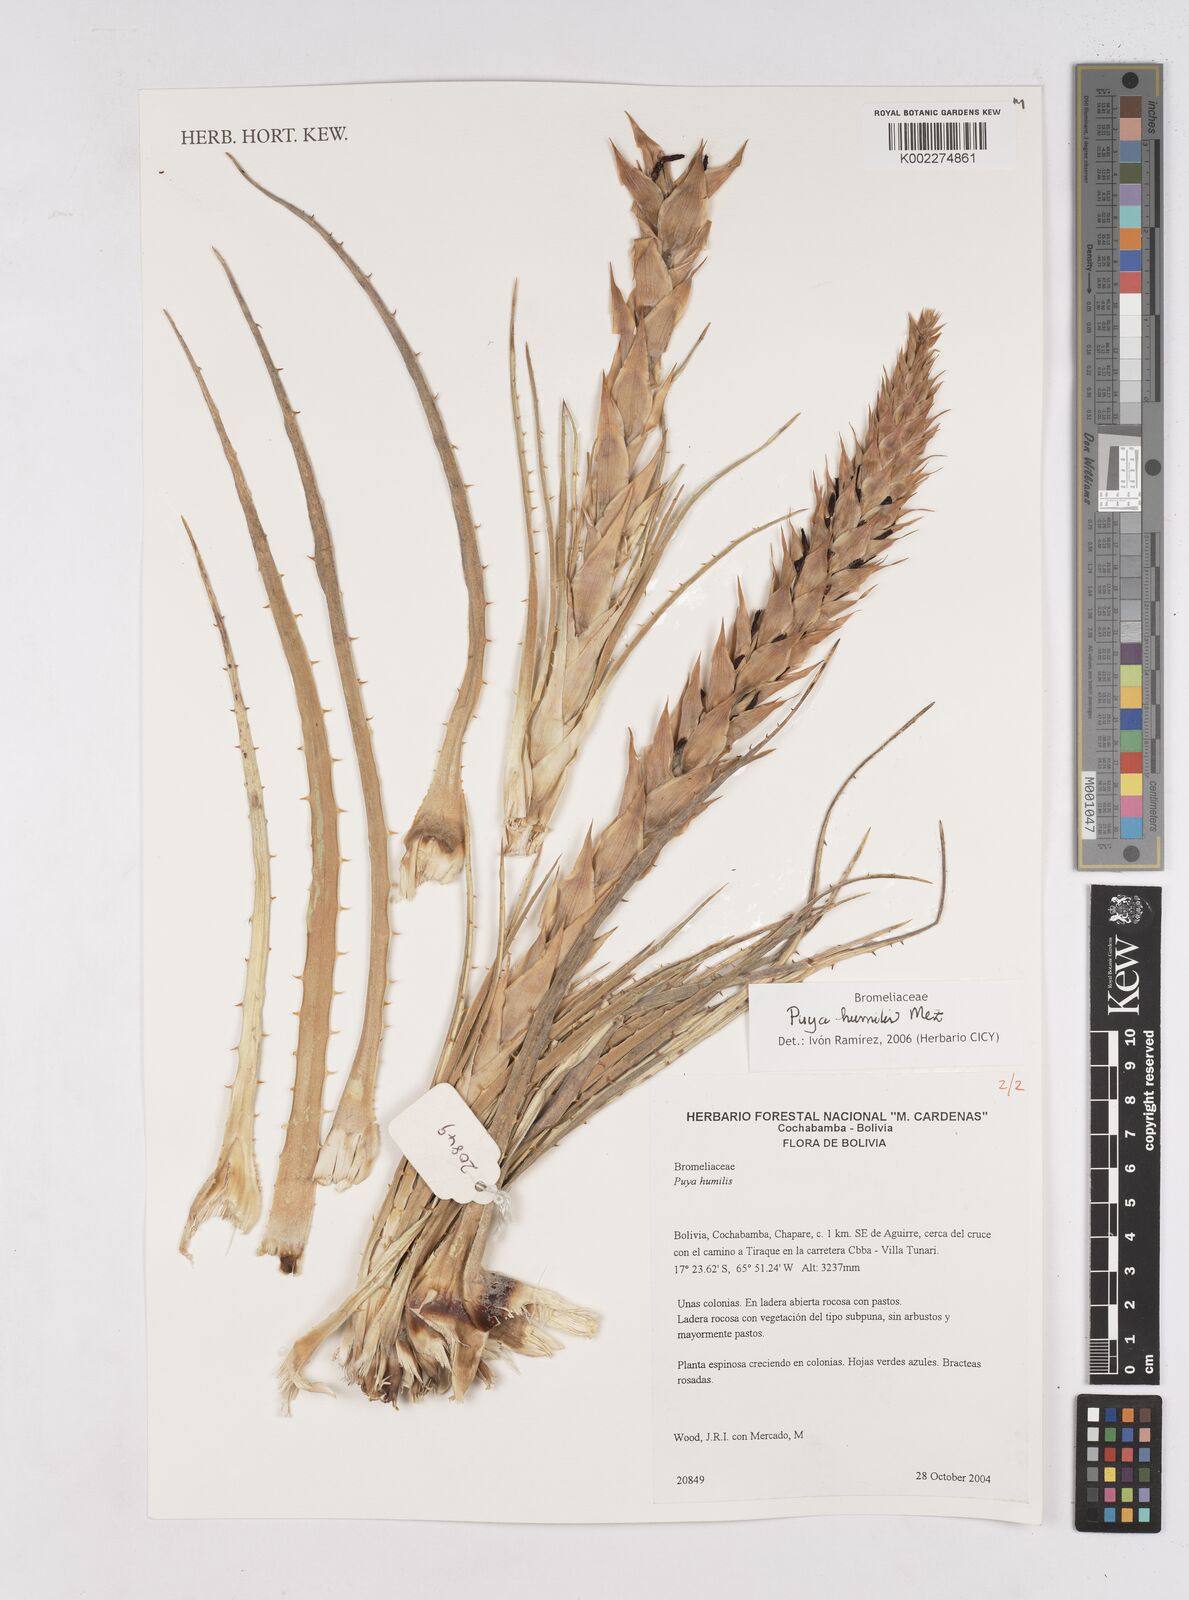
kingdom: Plantae
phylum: Tracheophyta
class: Liliopsida
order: Poales
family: Bromeliaceae
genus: Puya
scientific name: Puya humilis
